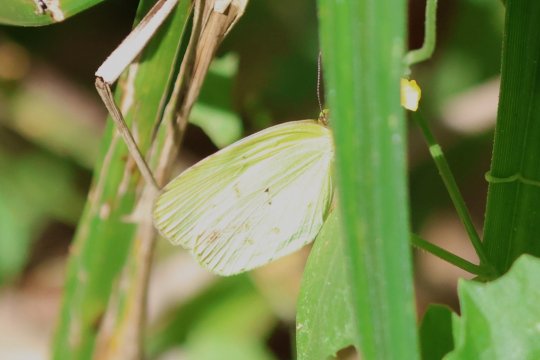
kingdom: Animalia
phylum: Arthropoda
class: Insecta
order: Lepidoptera
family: Pieridae
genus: Eurema
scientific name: Eurema elathea
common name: Banded Yellow
